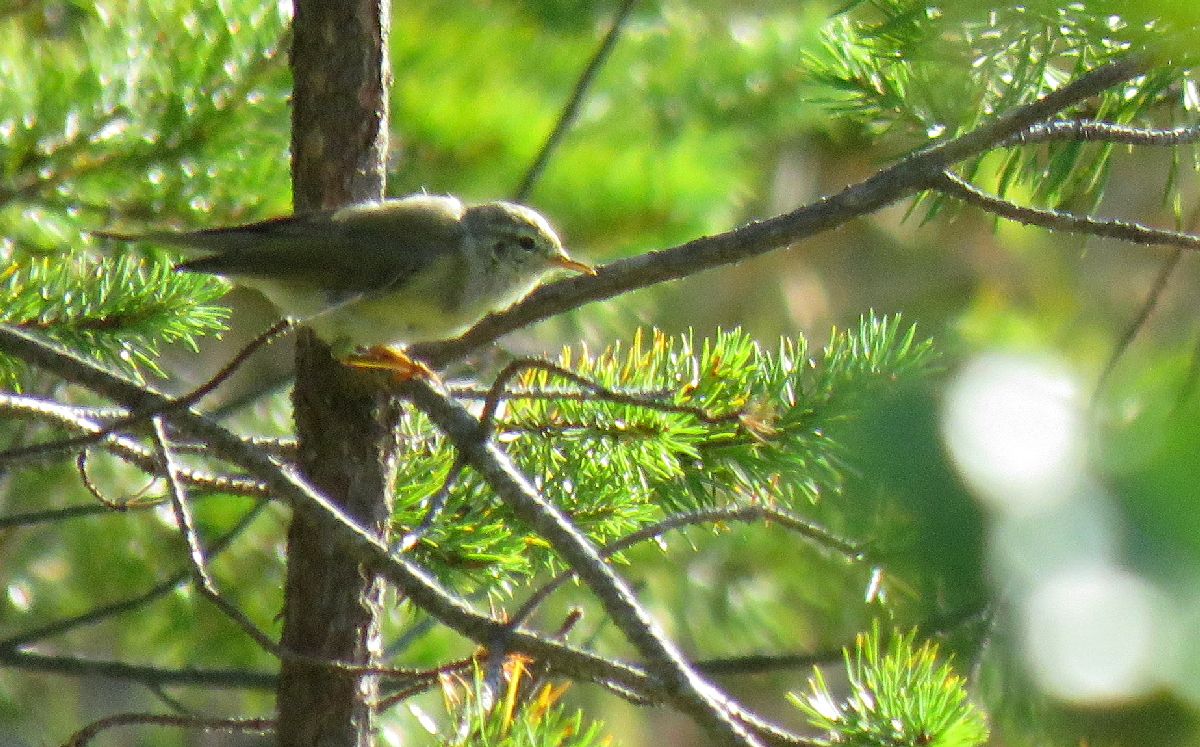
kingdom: Animalia
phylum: Chordata
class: Aves
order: Passeriformes
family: Phylloscopidae
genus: Phylloscopus
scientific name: Phylloscopus trochilus
